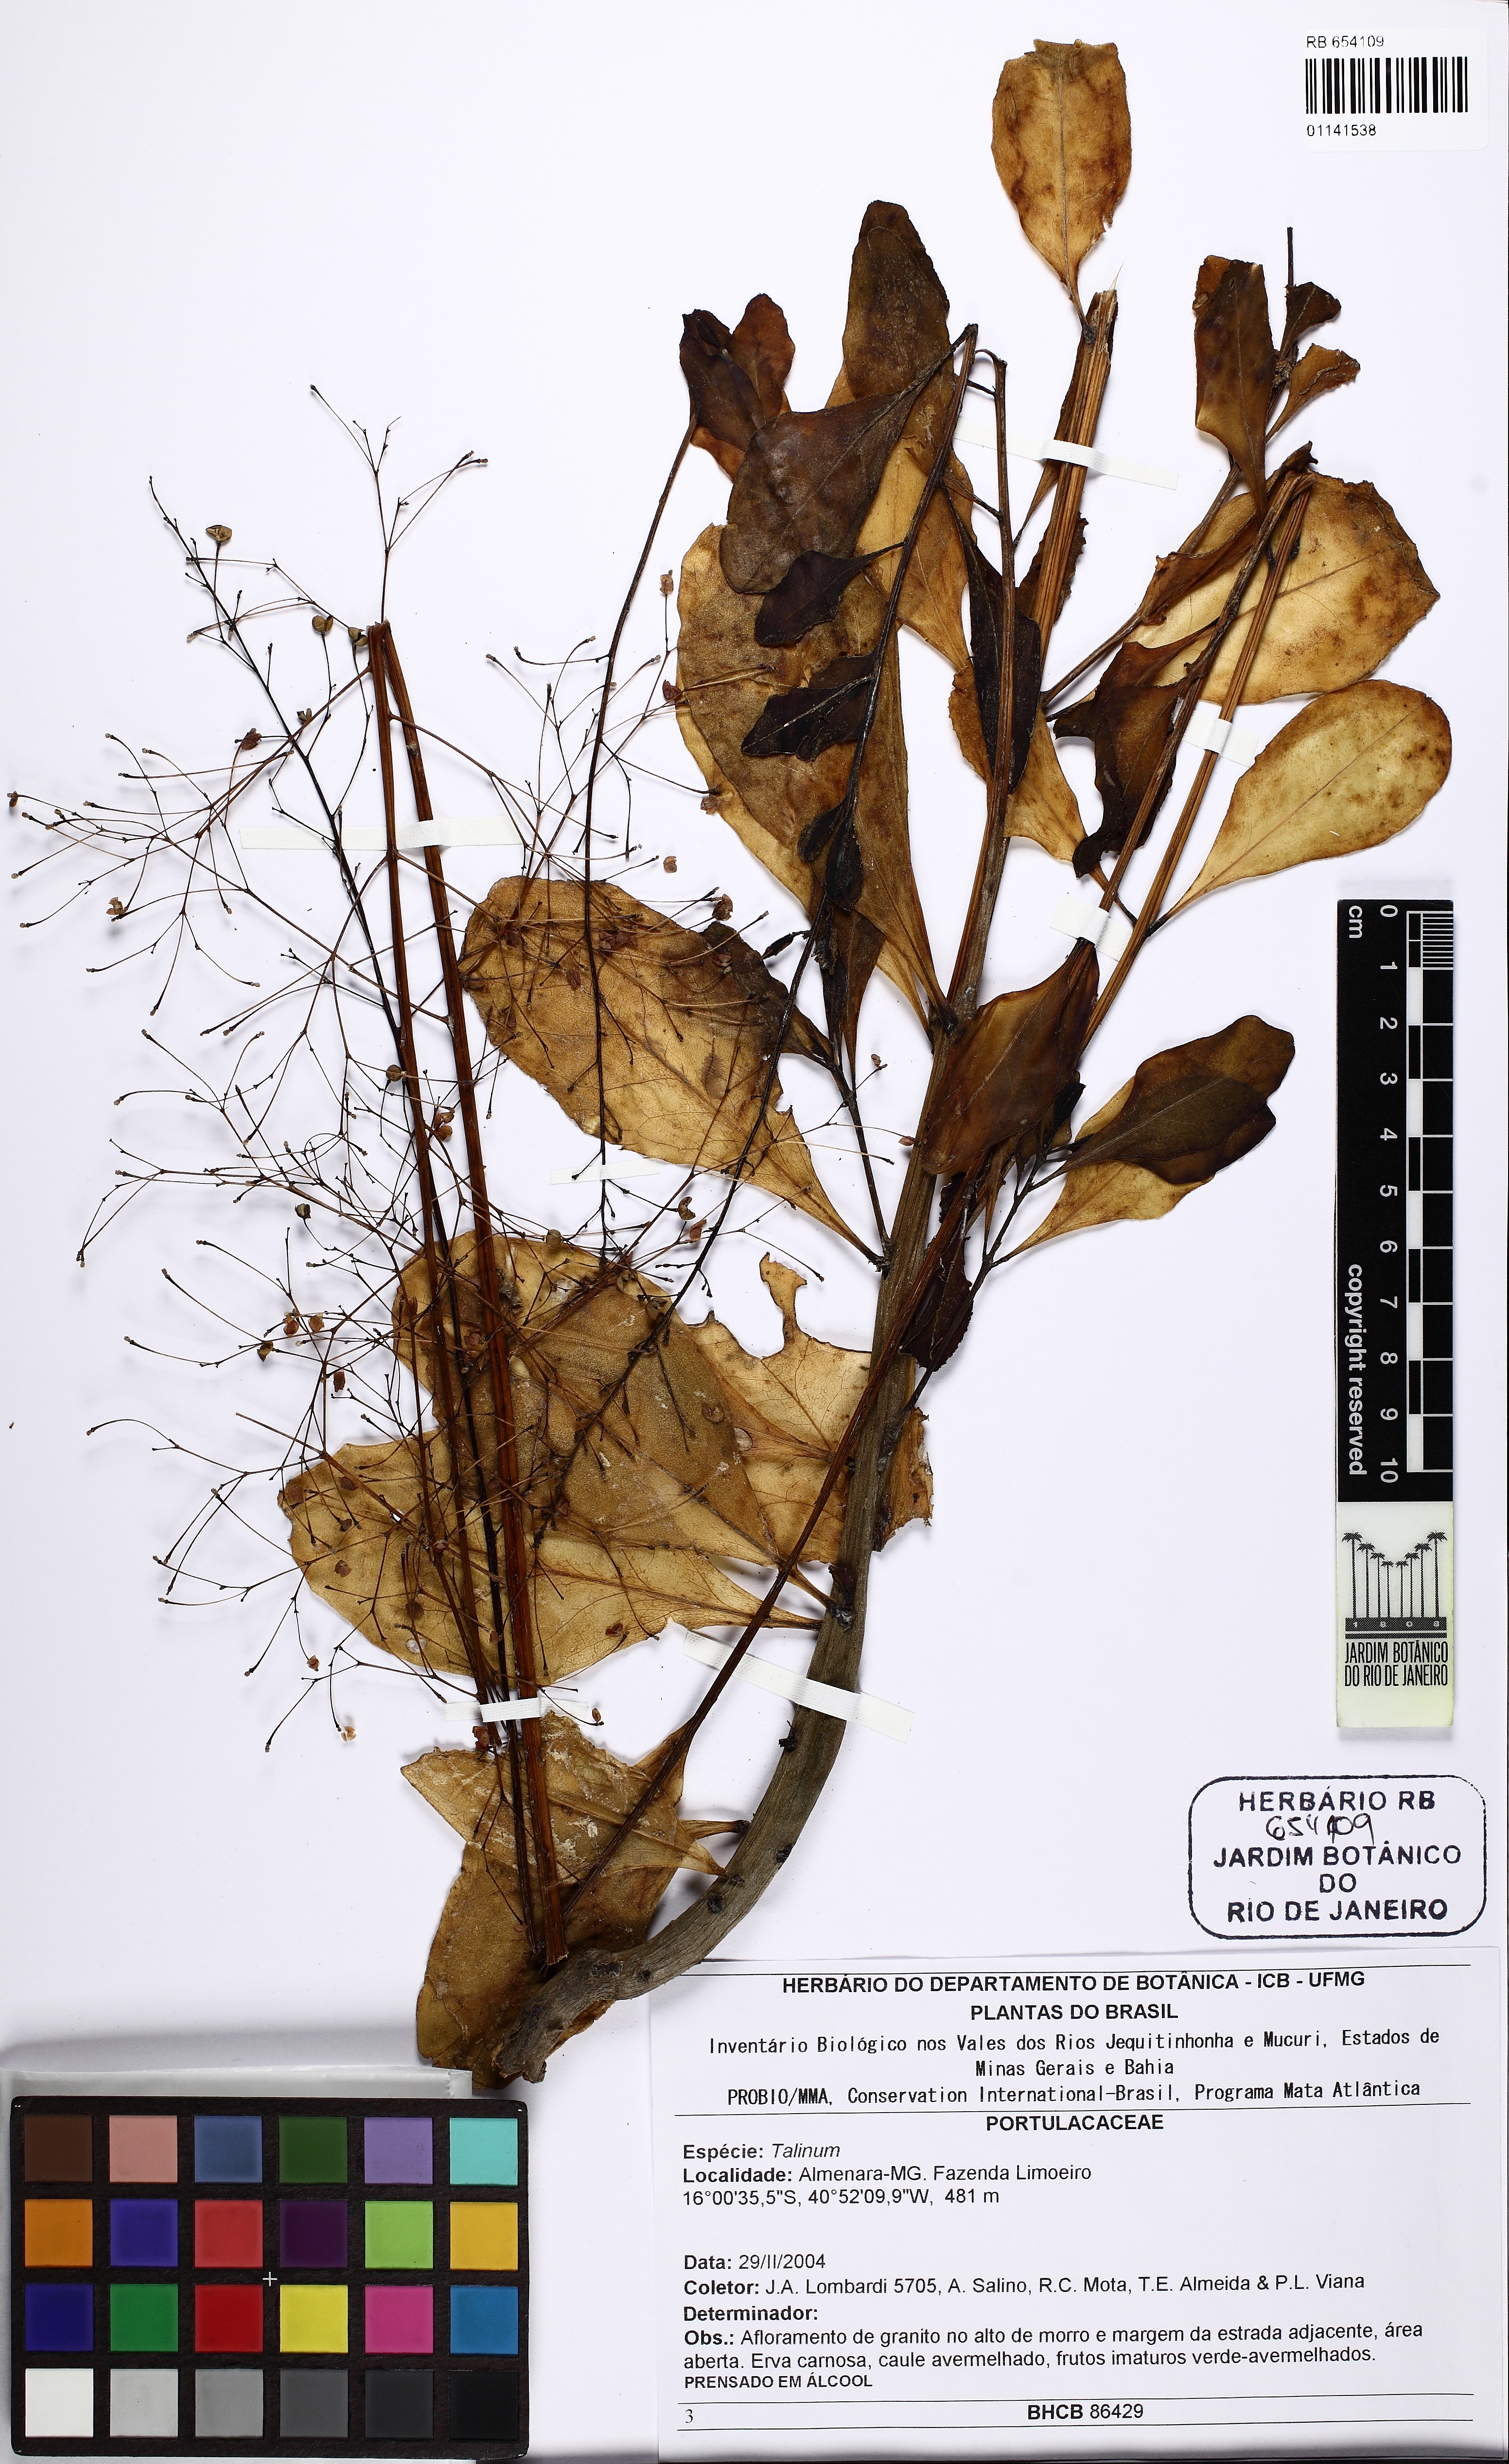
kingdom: Plantae
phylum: Tracheophyta
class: Magnoliopsida
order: Caryophyllales
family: Talinaceae
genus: Talinum
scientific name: Talinum
